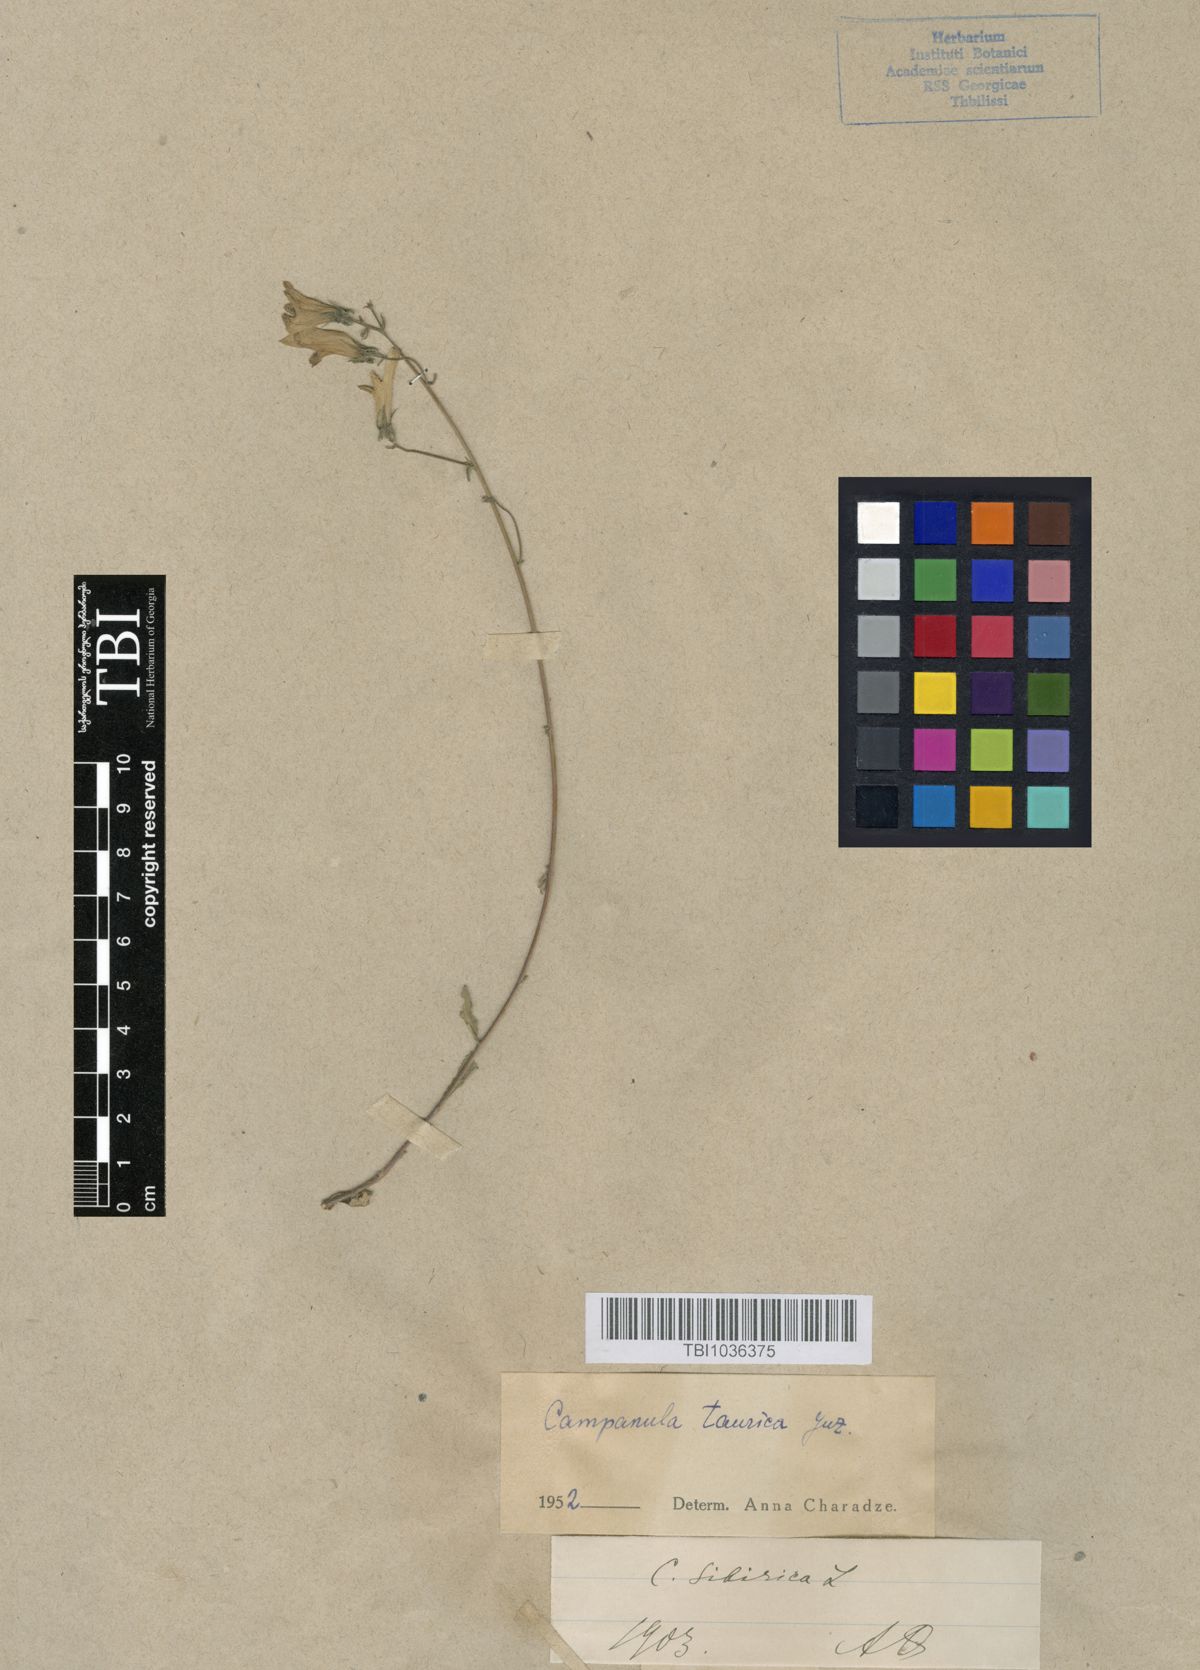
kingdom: Plantae
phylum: Tracheophyta
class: Magnoliopsida
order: Asterales
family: Campanulaceae
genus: Campanula
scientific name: Campanula sibirica
